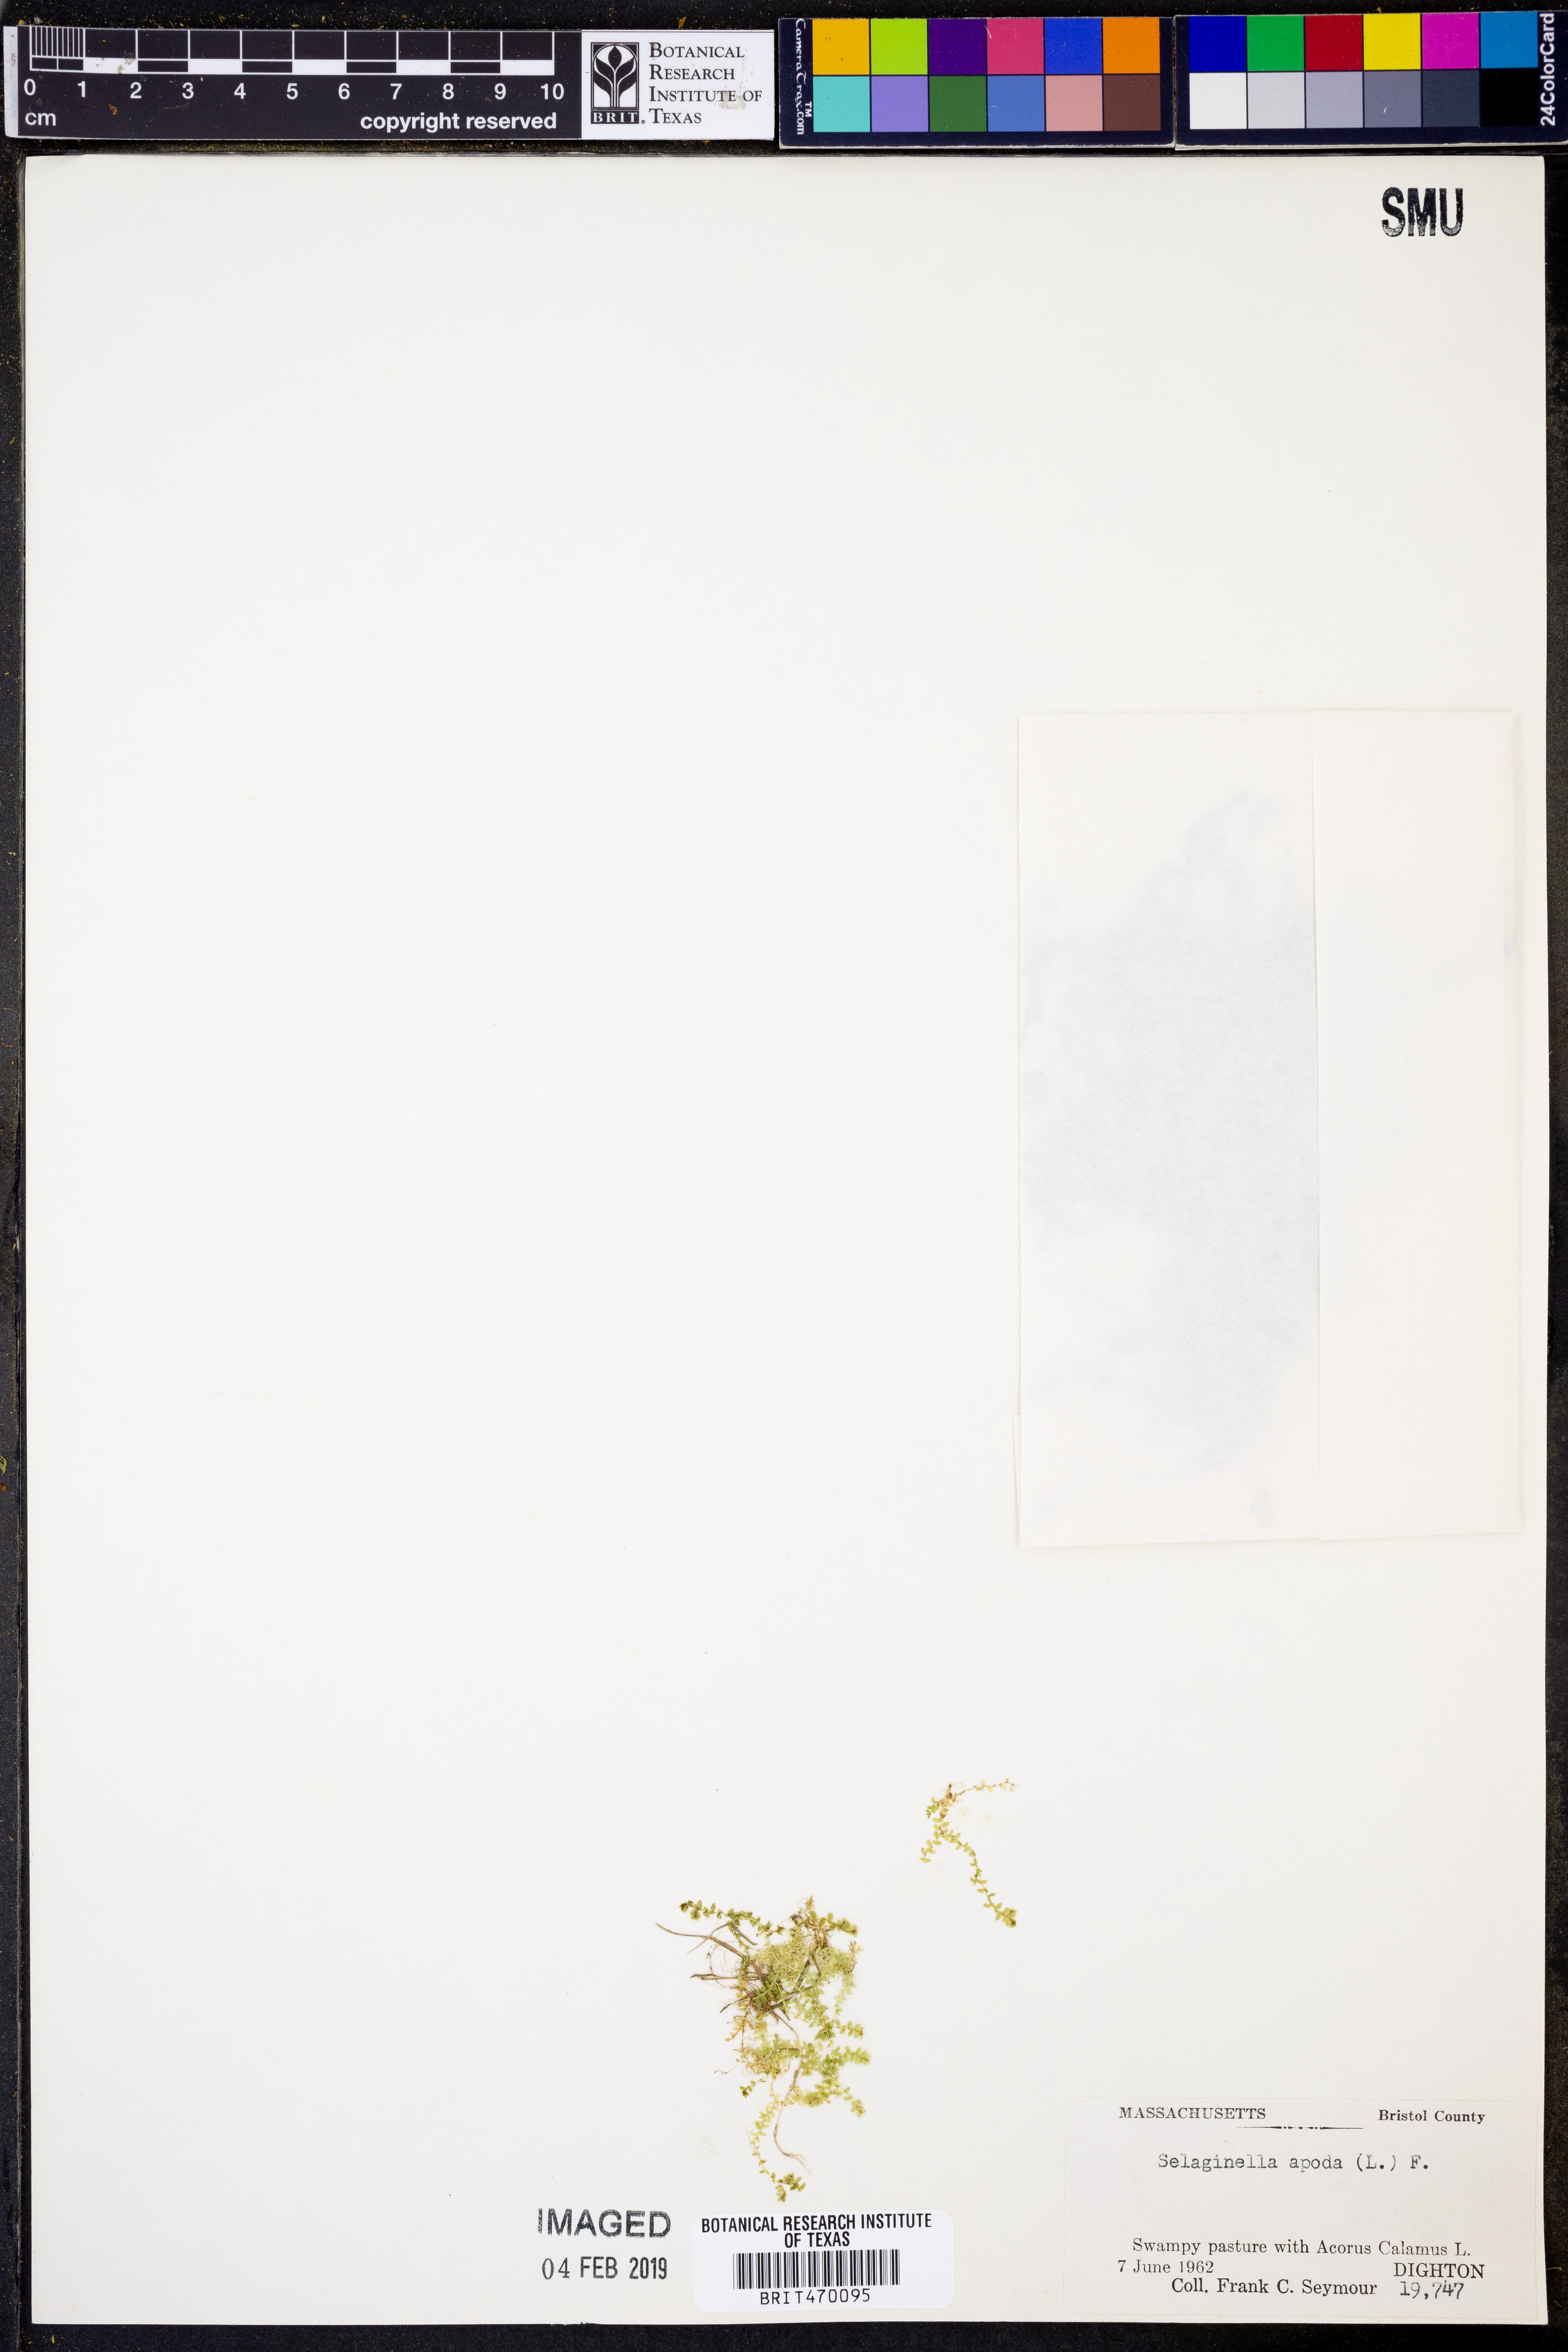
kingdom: Plantae
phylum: Tracheophyta
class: Lycopodiopsida
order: Selaginellales
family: Selaginellaceae
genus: Selaginella
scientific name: Selaginella apoda
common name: Creeping spikemoss
